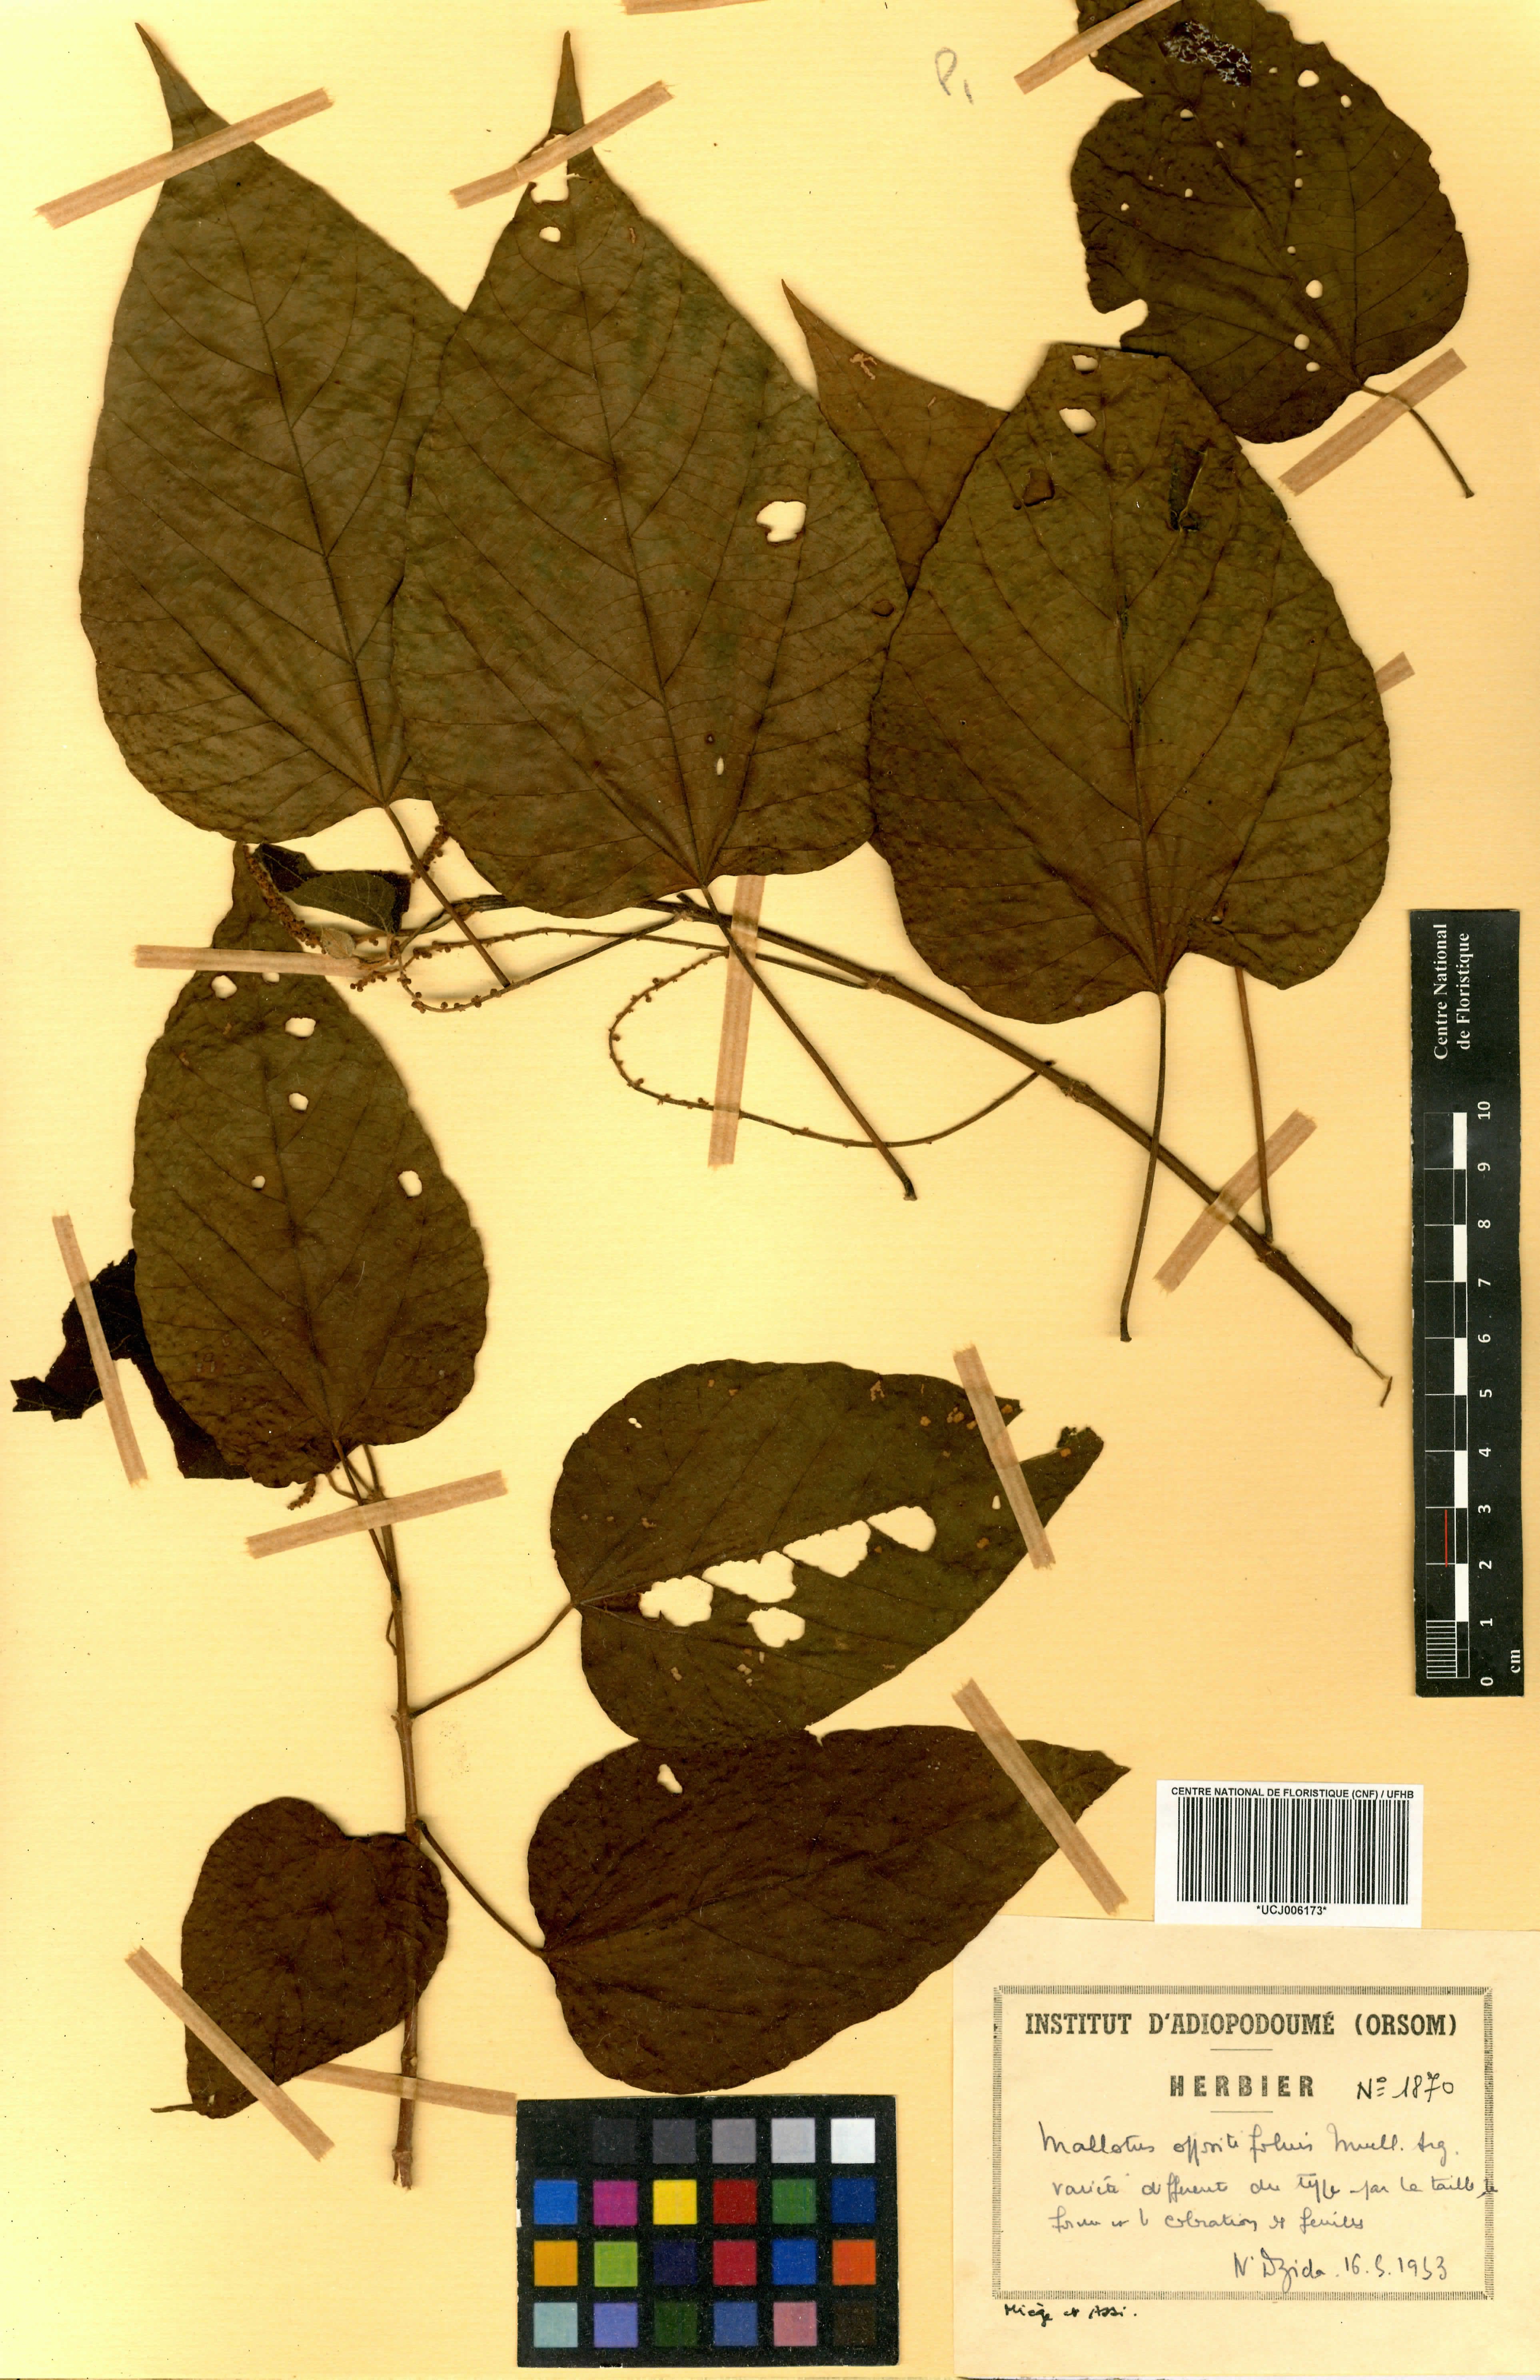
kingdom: Plantae
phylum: Tracheophyta
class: Magnoliopsida
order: Malpighiales
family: Euphorbiaceae
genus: Mallotus
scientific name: Mallotus oppositifolius
